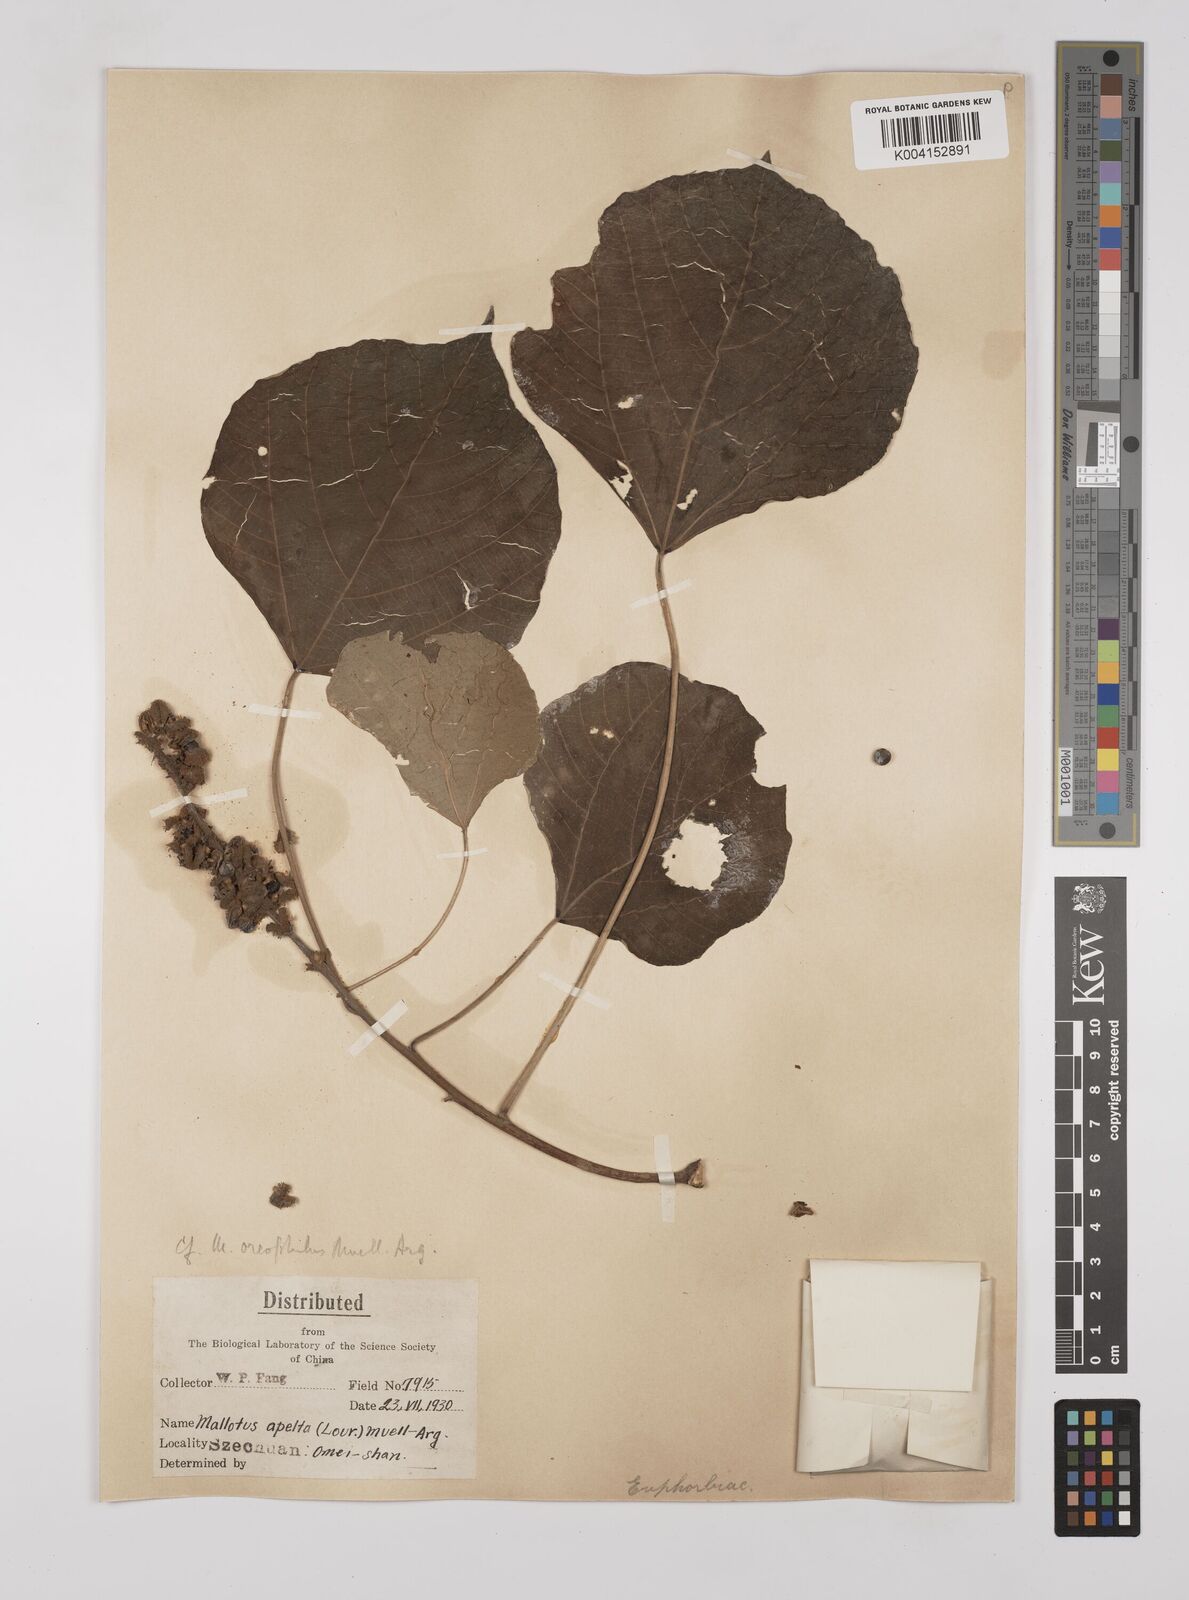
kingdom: Plantae
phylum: Tracheophyta
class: Magnoliopsida
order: Malpighiales
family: Euphorbiaceae
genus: Mallotus
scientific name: Mallotus oreophilus
